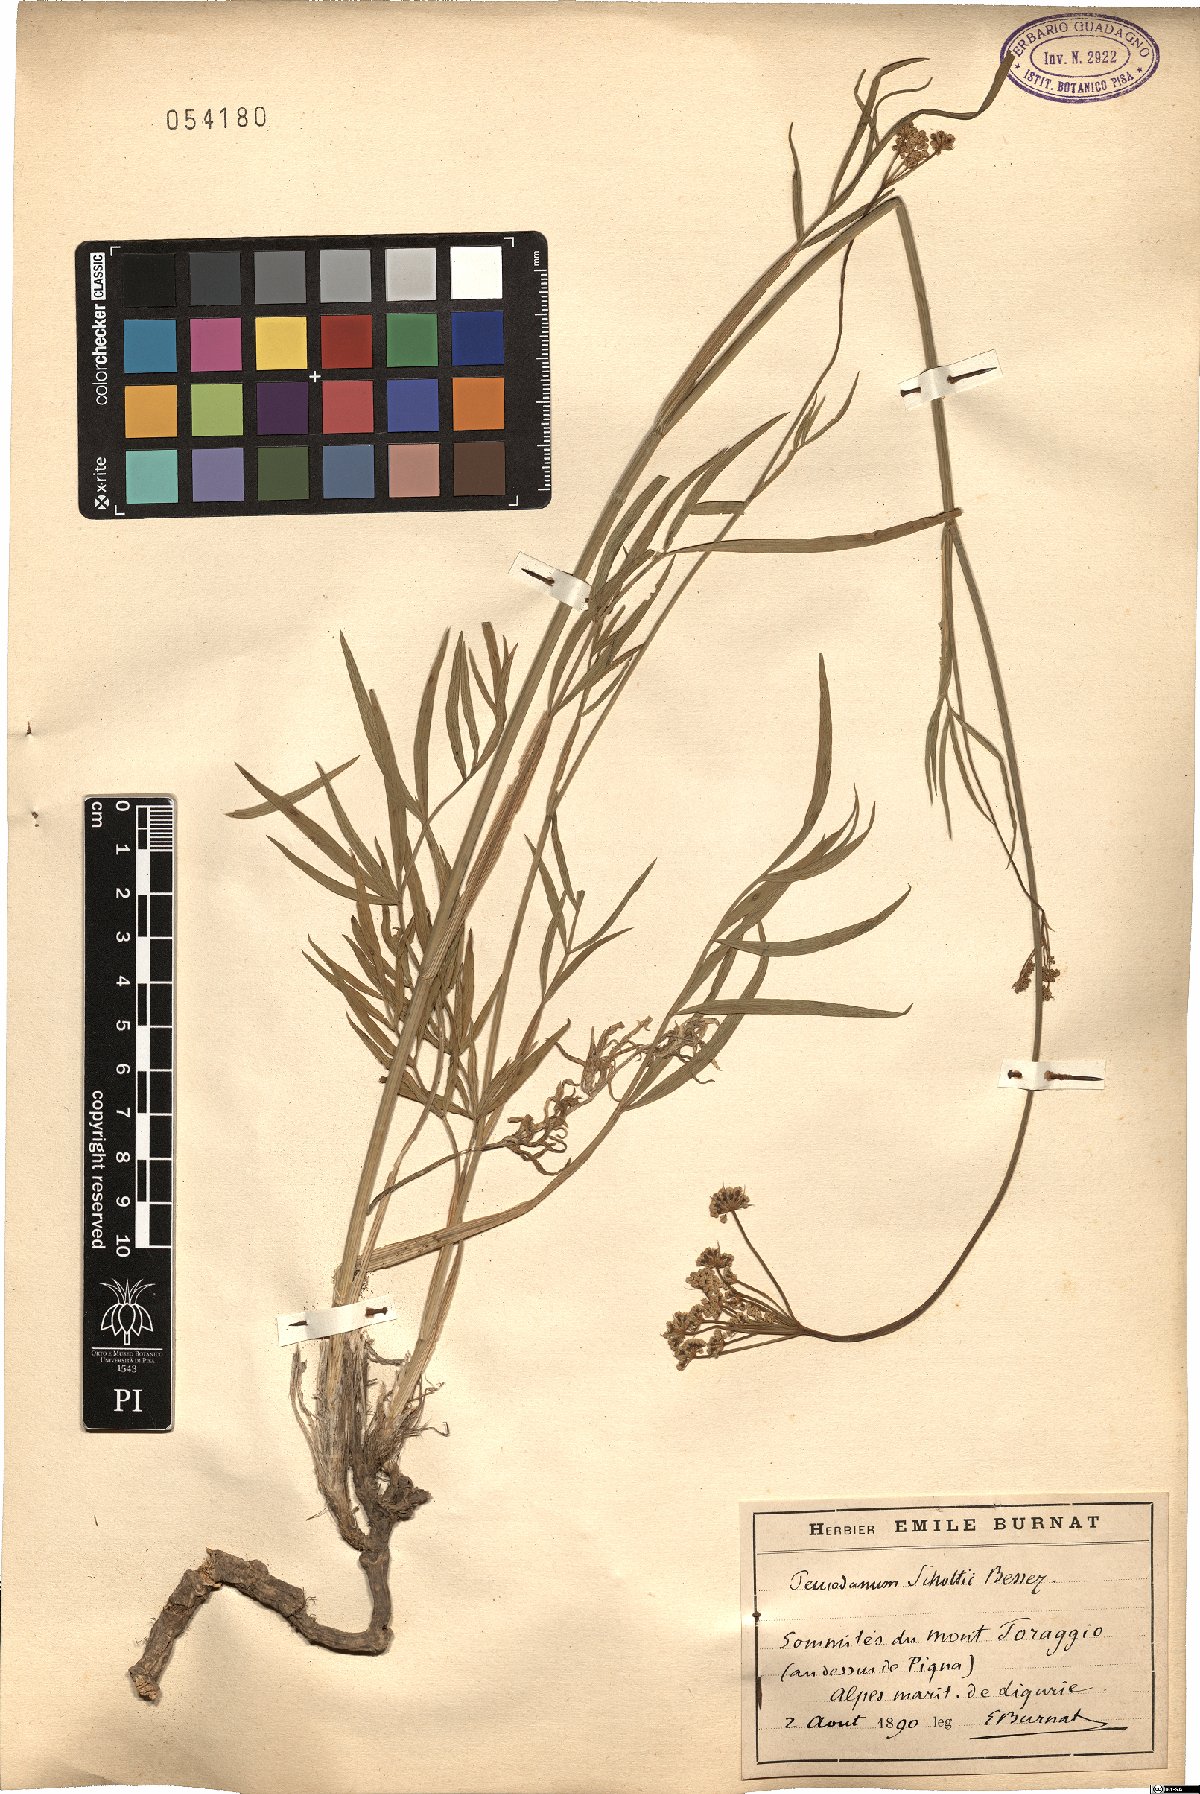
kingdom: Plantae
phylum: Tracheophyta
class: Magnoliopsida
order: Apiales
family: Apiaceae
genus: Dichoropetalum
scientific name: Dichoropetalum schottii
